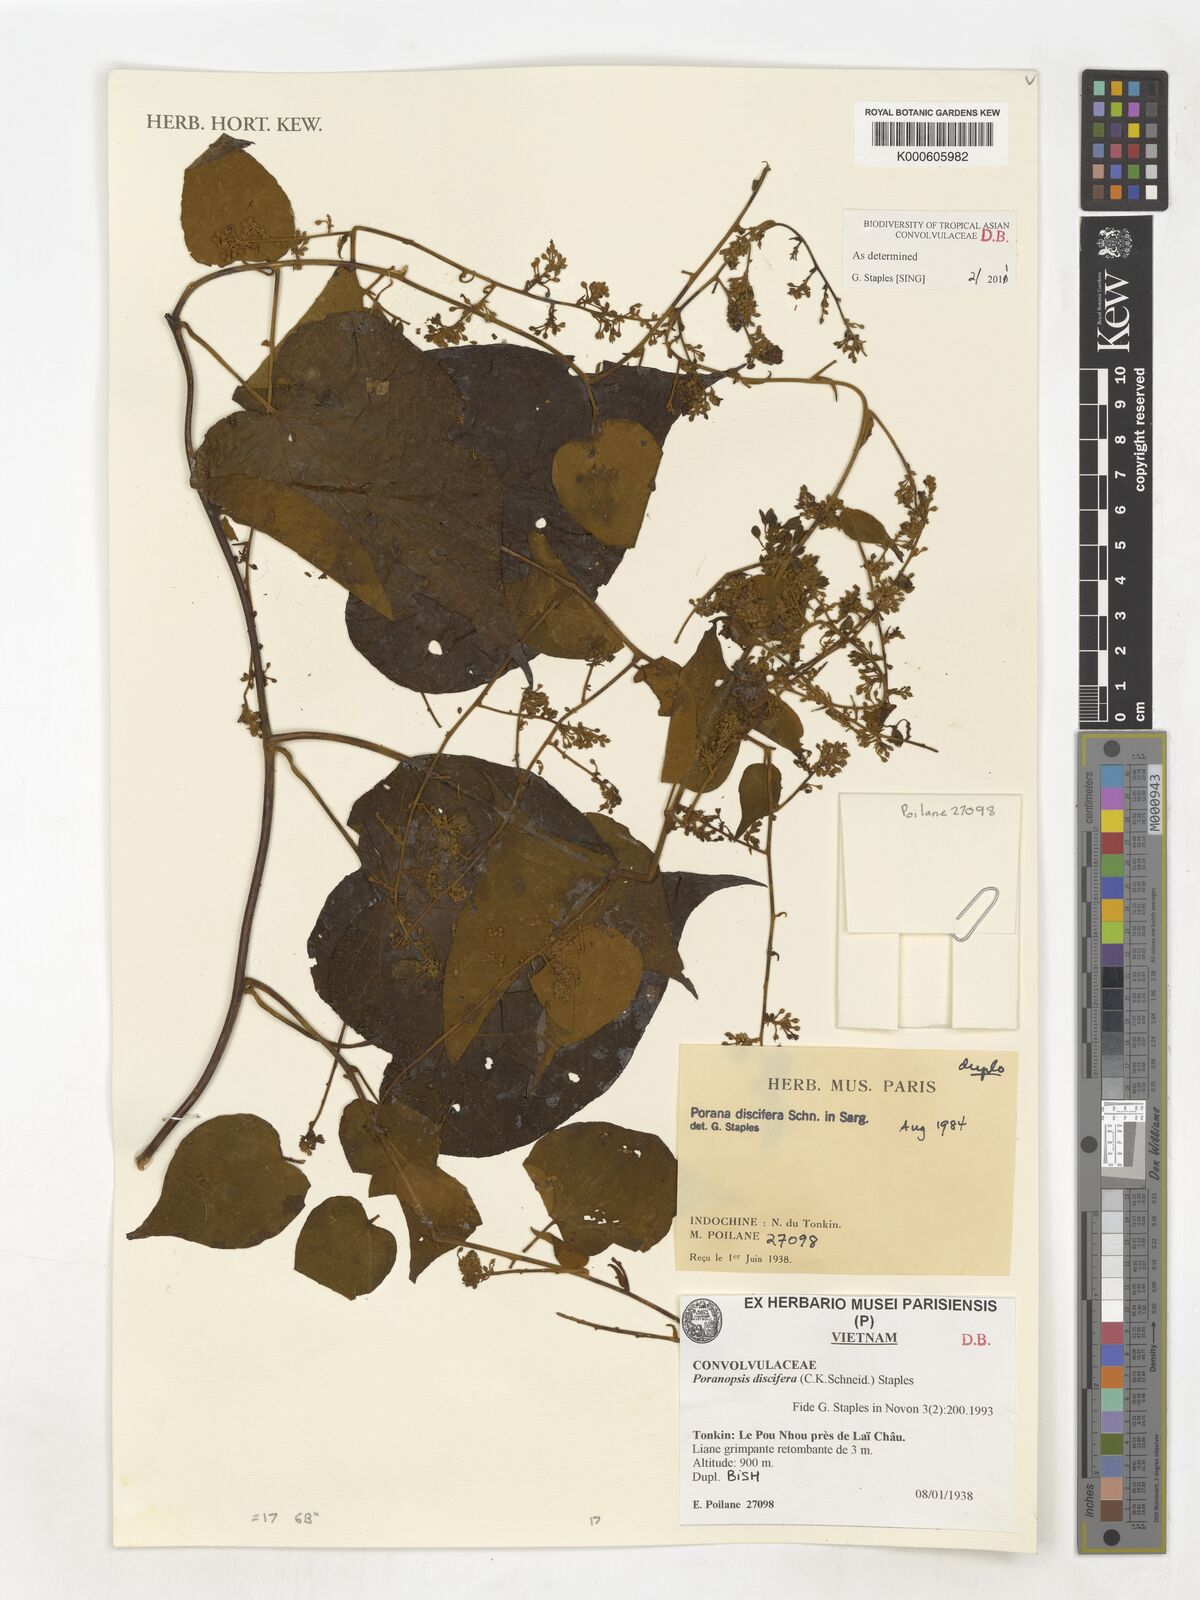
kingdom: Plantae
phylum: Tracheophyta
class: Magnoliopsida
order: Solanales
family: Convolvulaceae
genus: Poranopsis
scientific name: Poranopsis discifera
